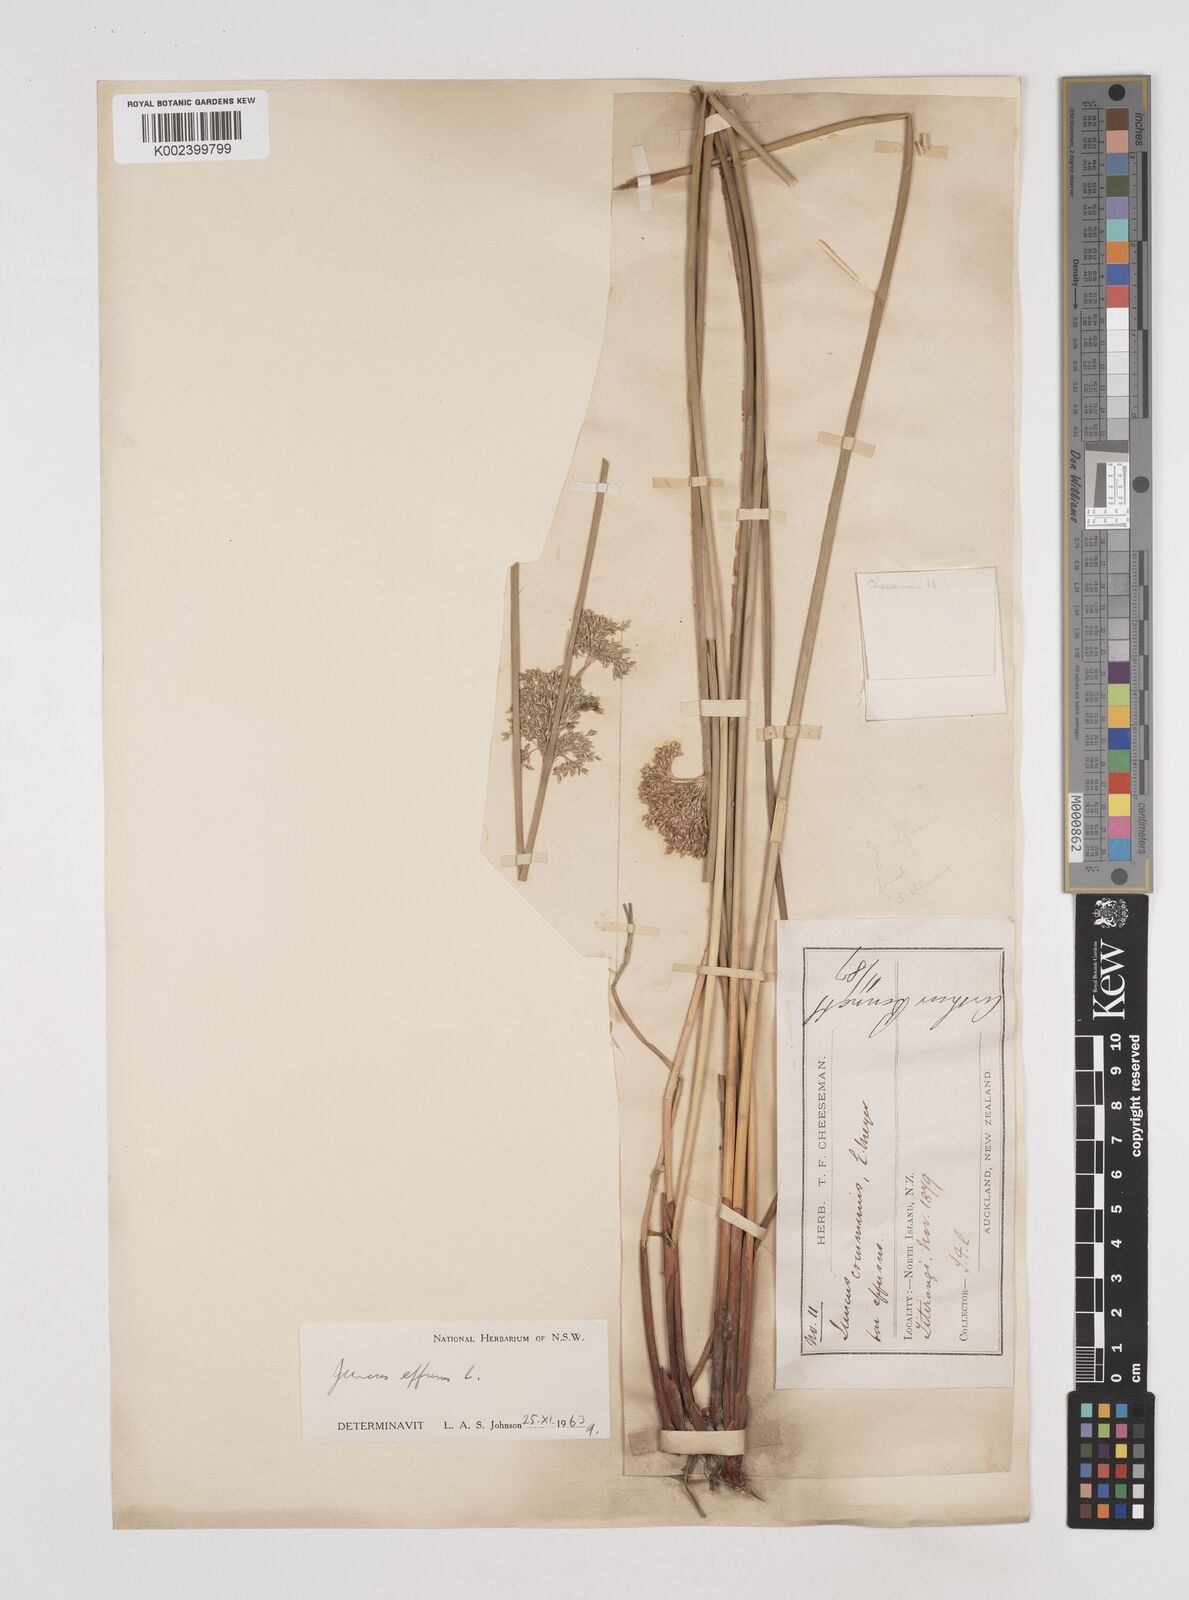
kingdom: Plantae
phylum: Tracheophyta
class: Liliopsida
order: Poales
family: Juncaceae
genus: Juncus
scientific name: Juncus effusus
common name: Soft rush
